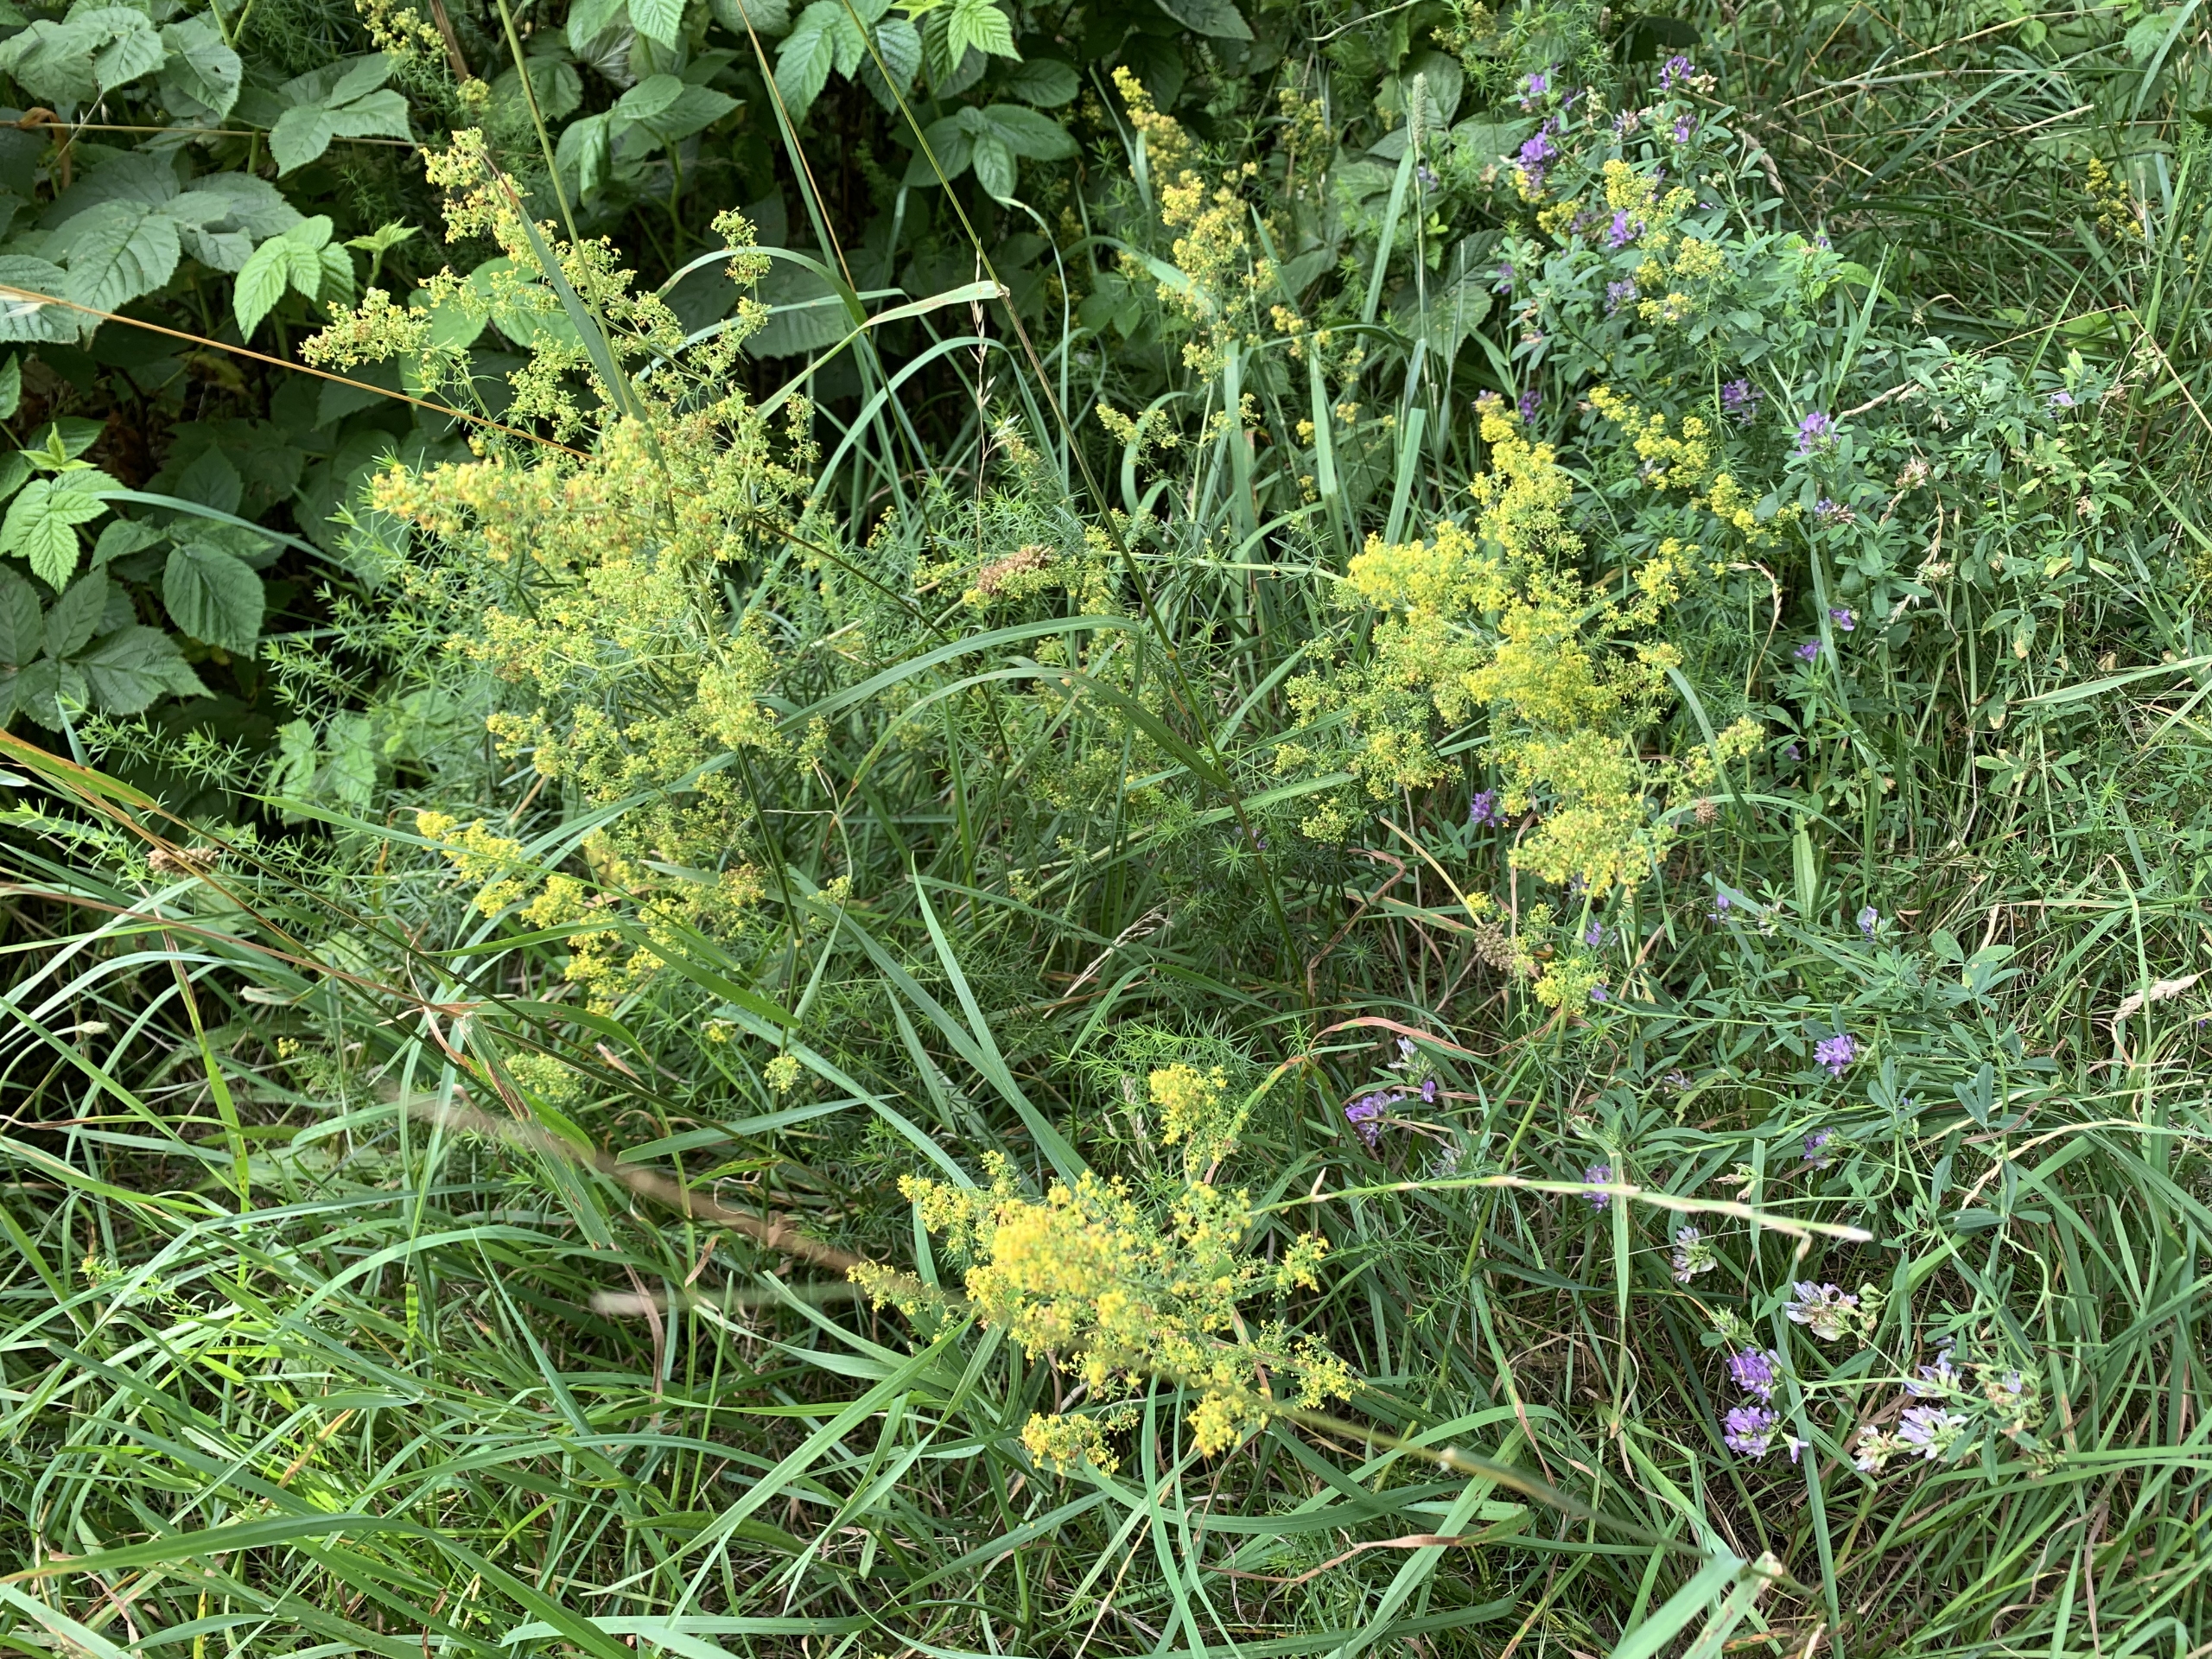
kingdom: Plantae
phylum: Tracheophyta
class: Magnoliopsida
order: Gentianales
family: Rubiaceae
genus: Galium
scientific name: Galium verum
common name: Gul snerre
